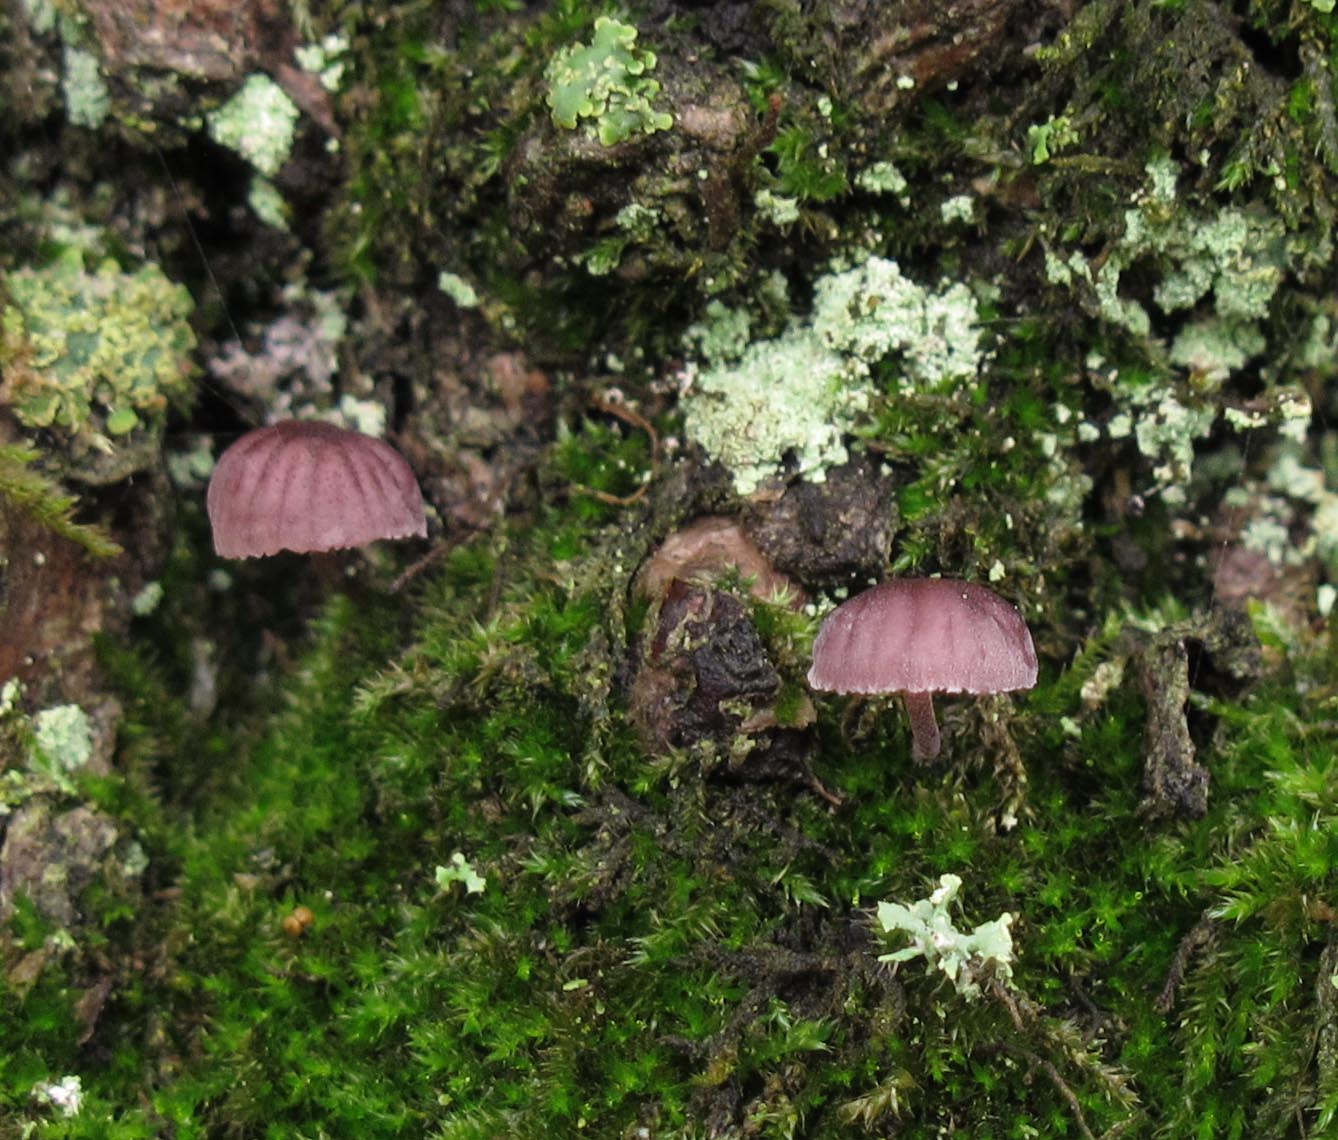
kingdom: Fungi
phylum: Basidiomycota
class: Agaricomycetes
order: Agaricales
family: Mycenaceae
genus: Mycena
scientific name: Mycena meliigena
